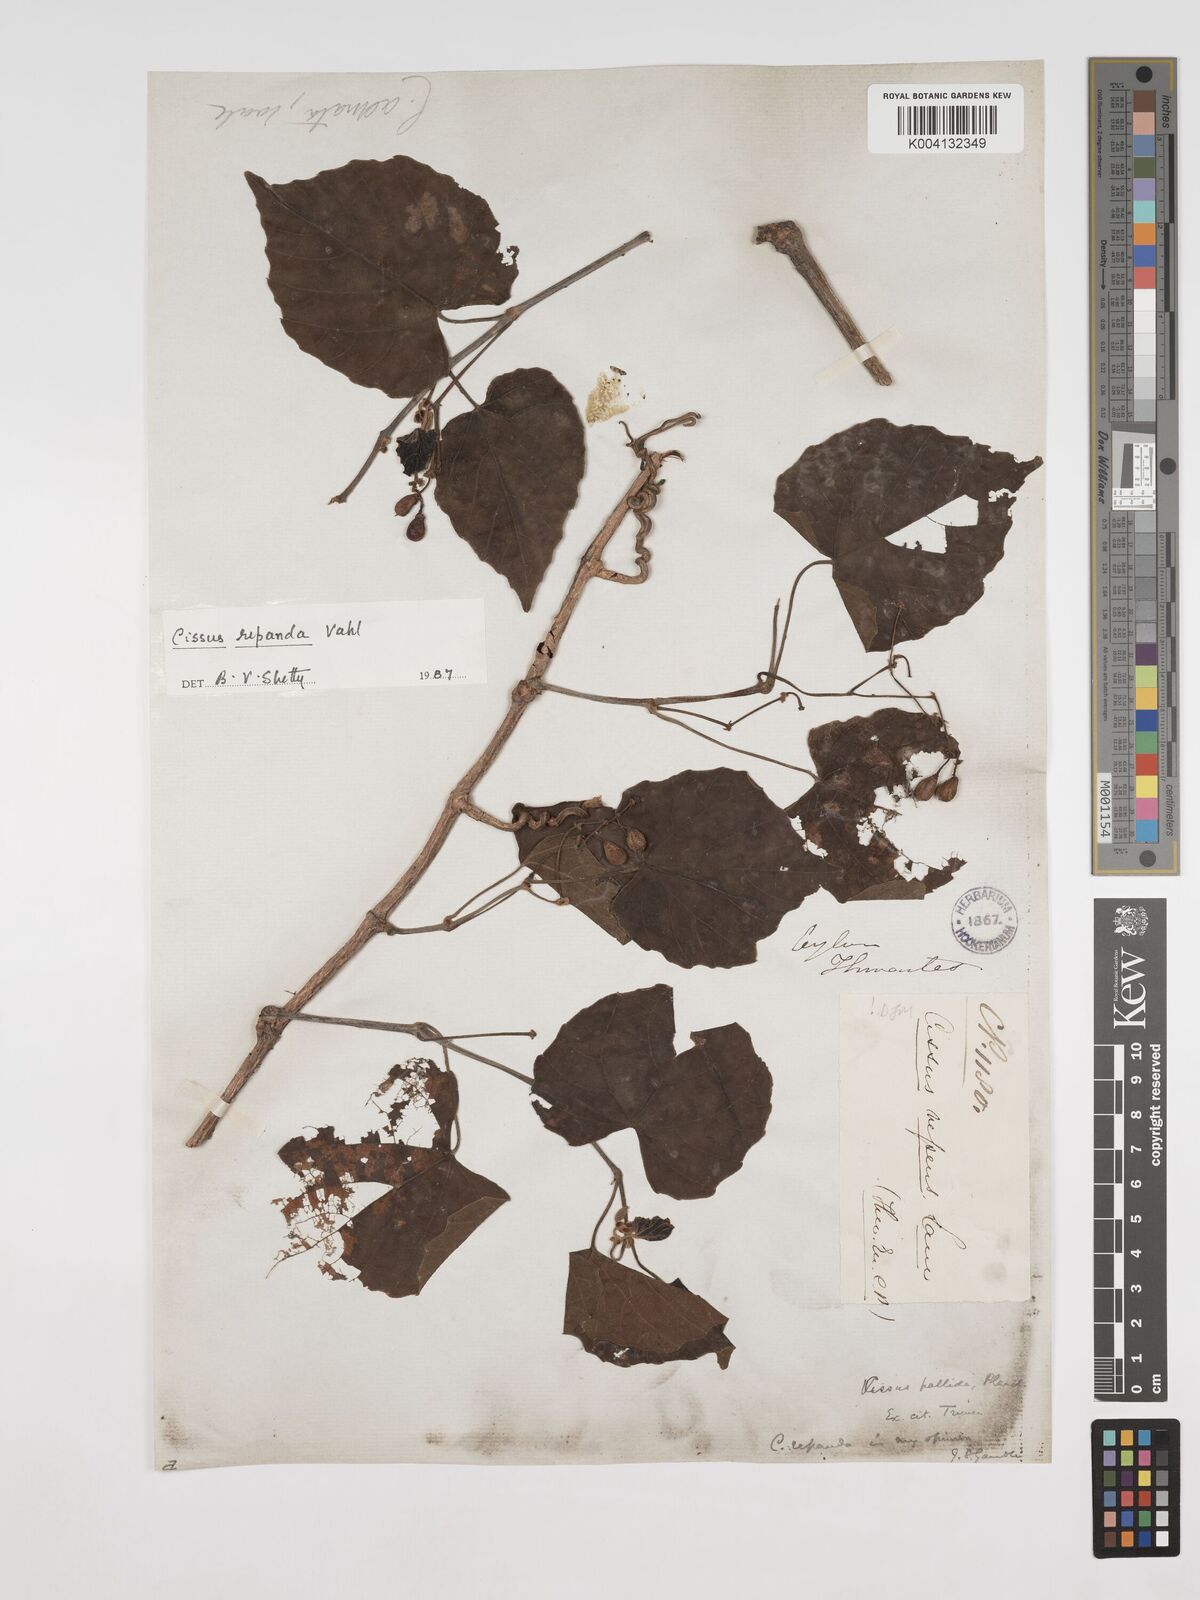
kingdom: Plantae
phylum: Tracheophyta
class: Magnoliopsida
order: Vitales
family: Vitaceae
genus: Cissus
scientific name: Cissus repanda
